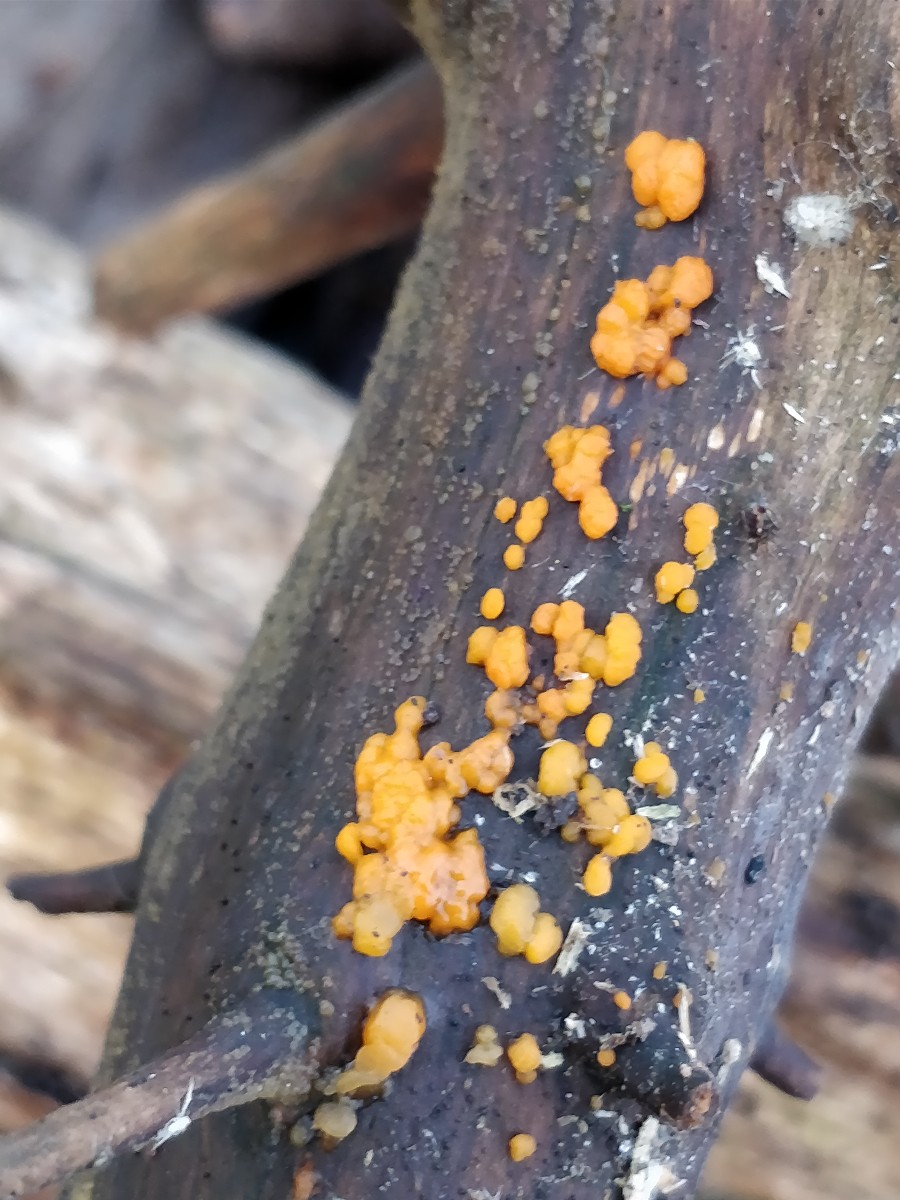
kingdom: Fungi
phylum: Basidiomycota
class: Dacrymycetes
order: Dacrymycetales
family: Dacrymycetaceae
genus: Dacrymyces
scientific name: Dacrymyces stillatus
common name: almindelig tåresvamp
